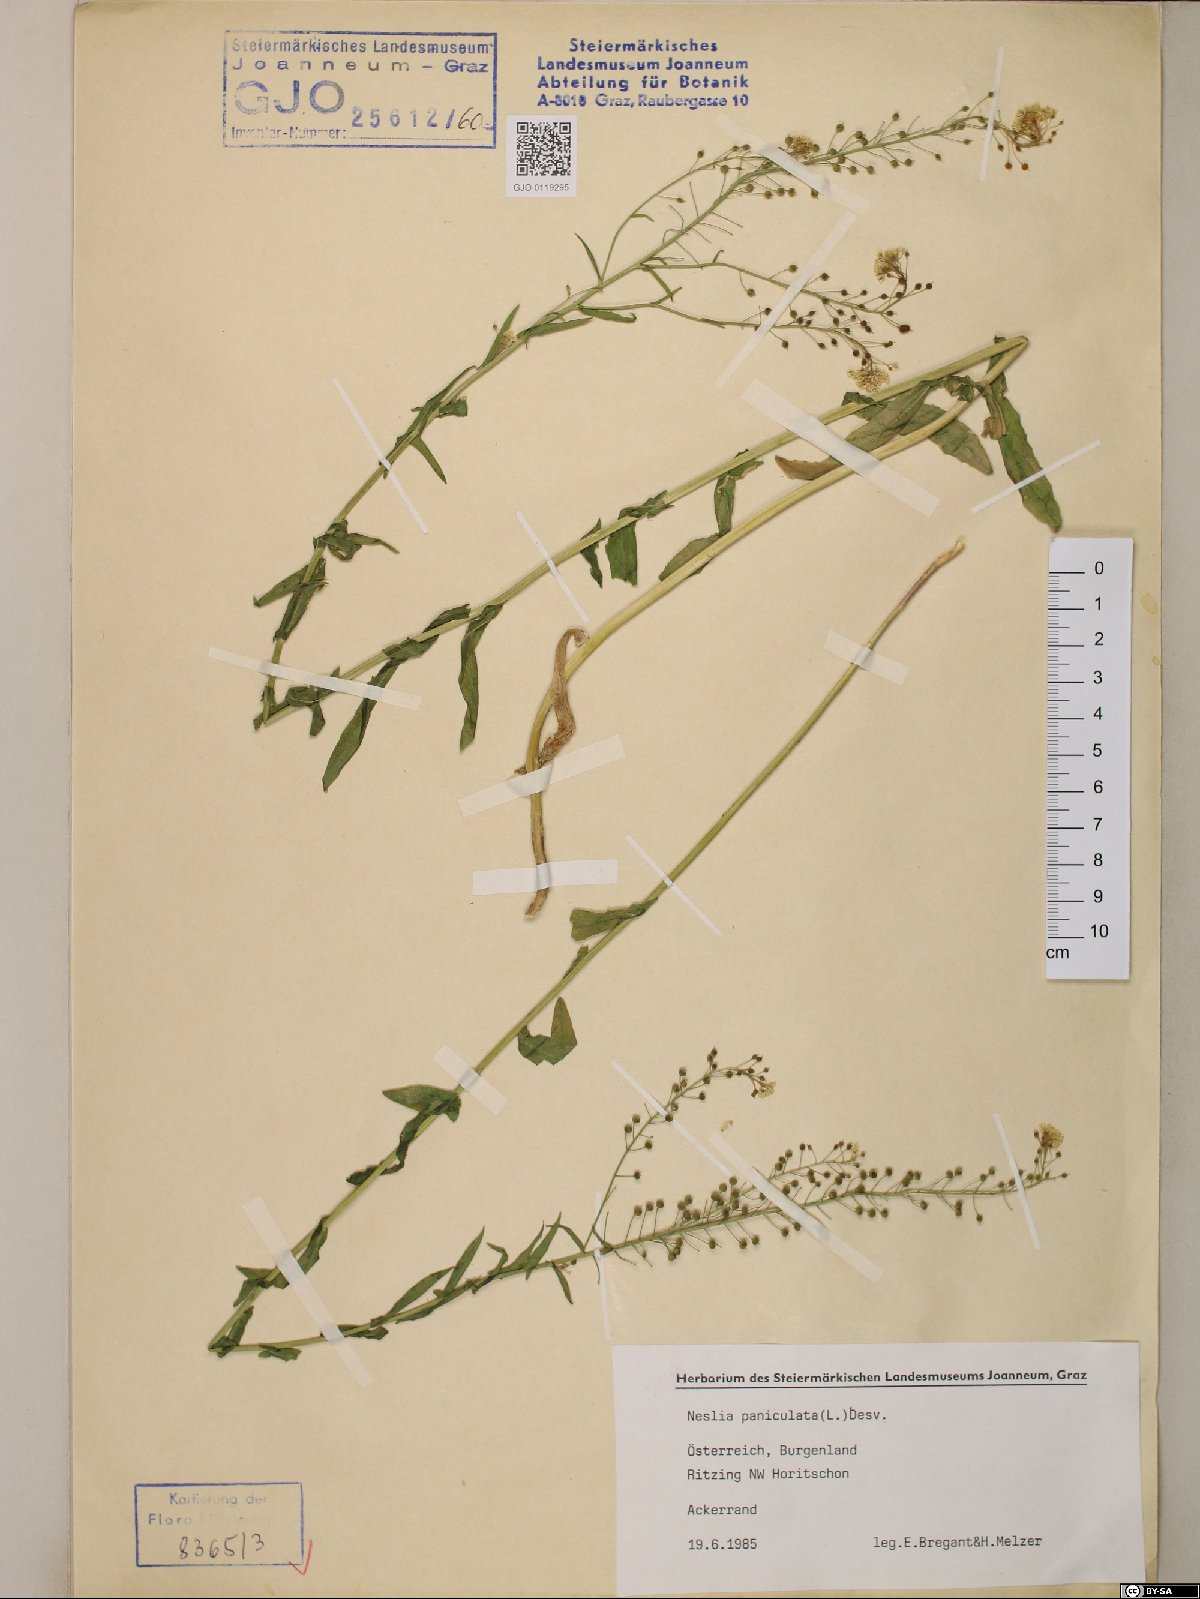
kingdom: Plantae
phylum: Tracheophyta
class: Magnoliopsida
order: Brassicales
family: Brassicaceae
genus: Neslia
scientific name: Neslia paniculata
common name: Ball mustard
